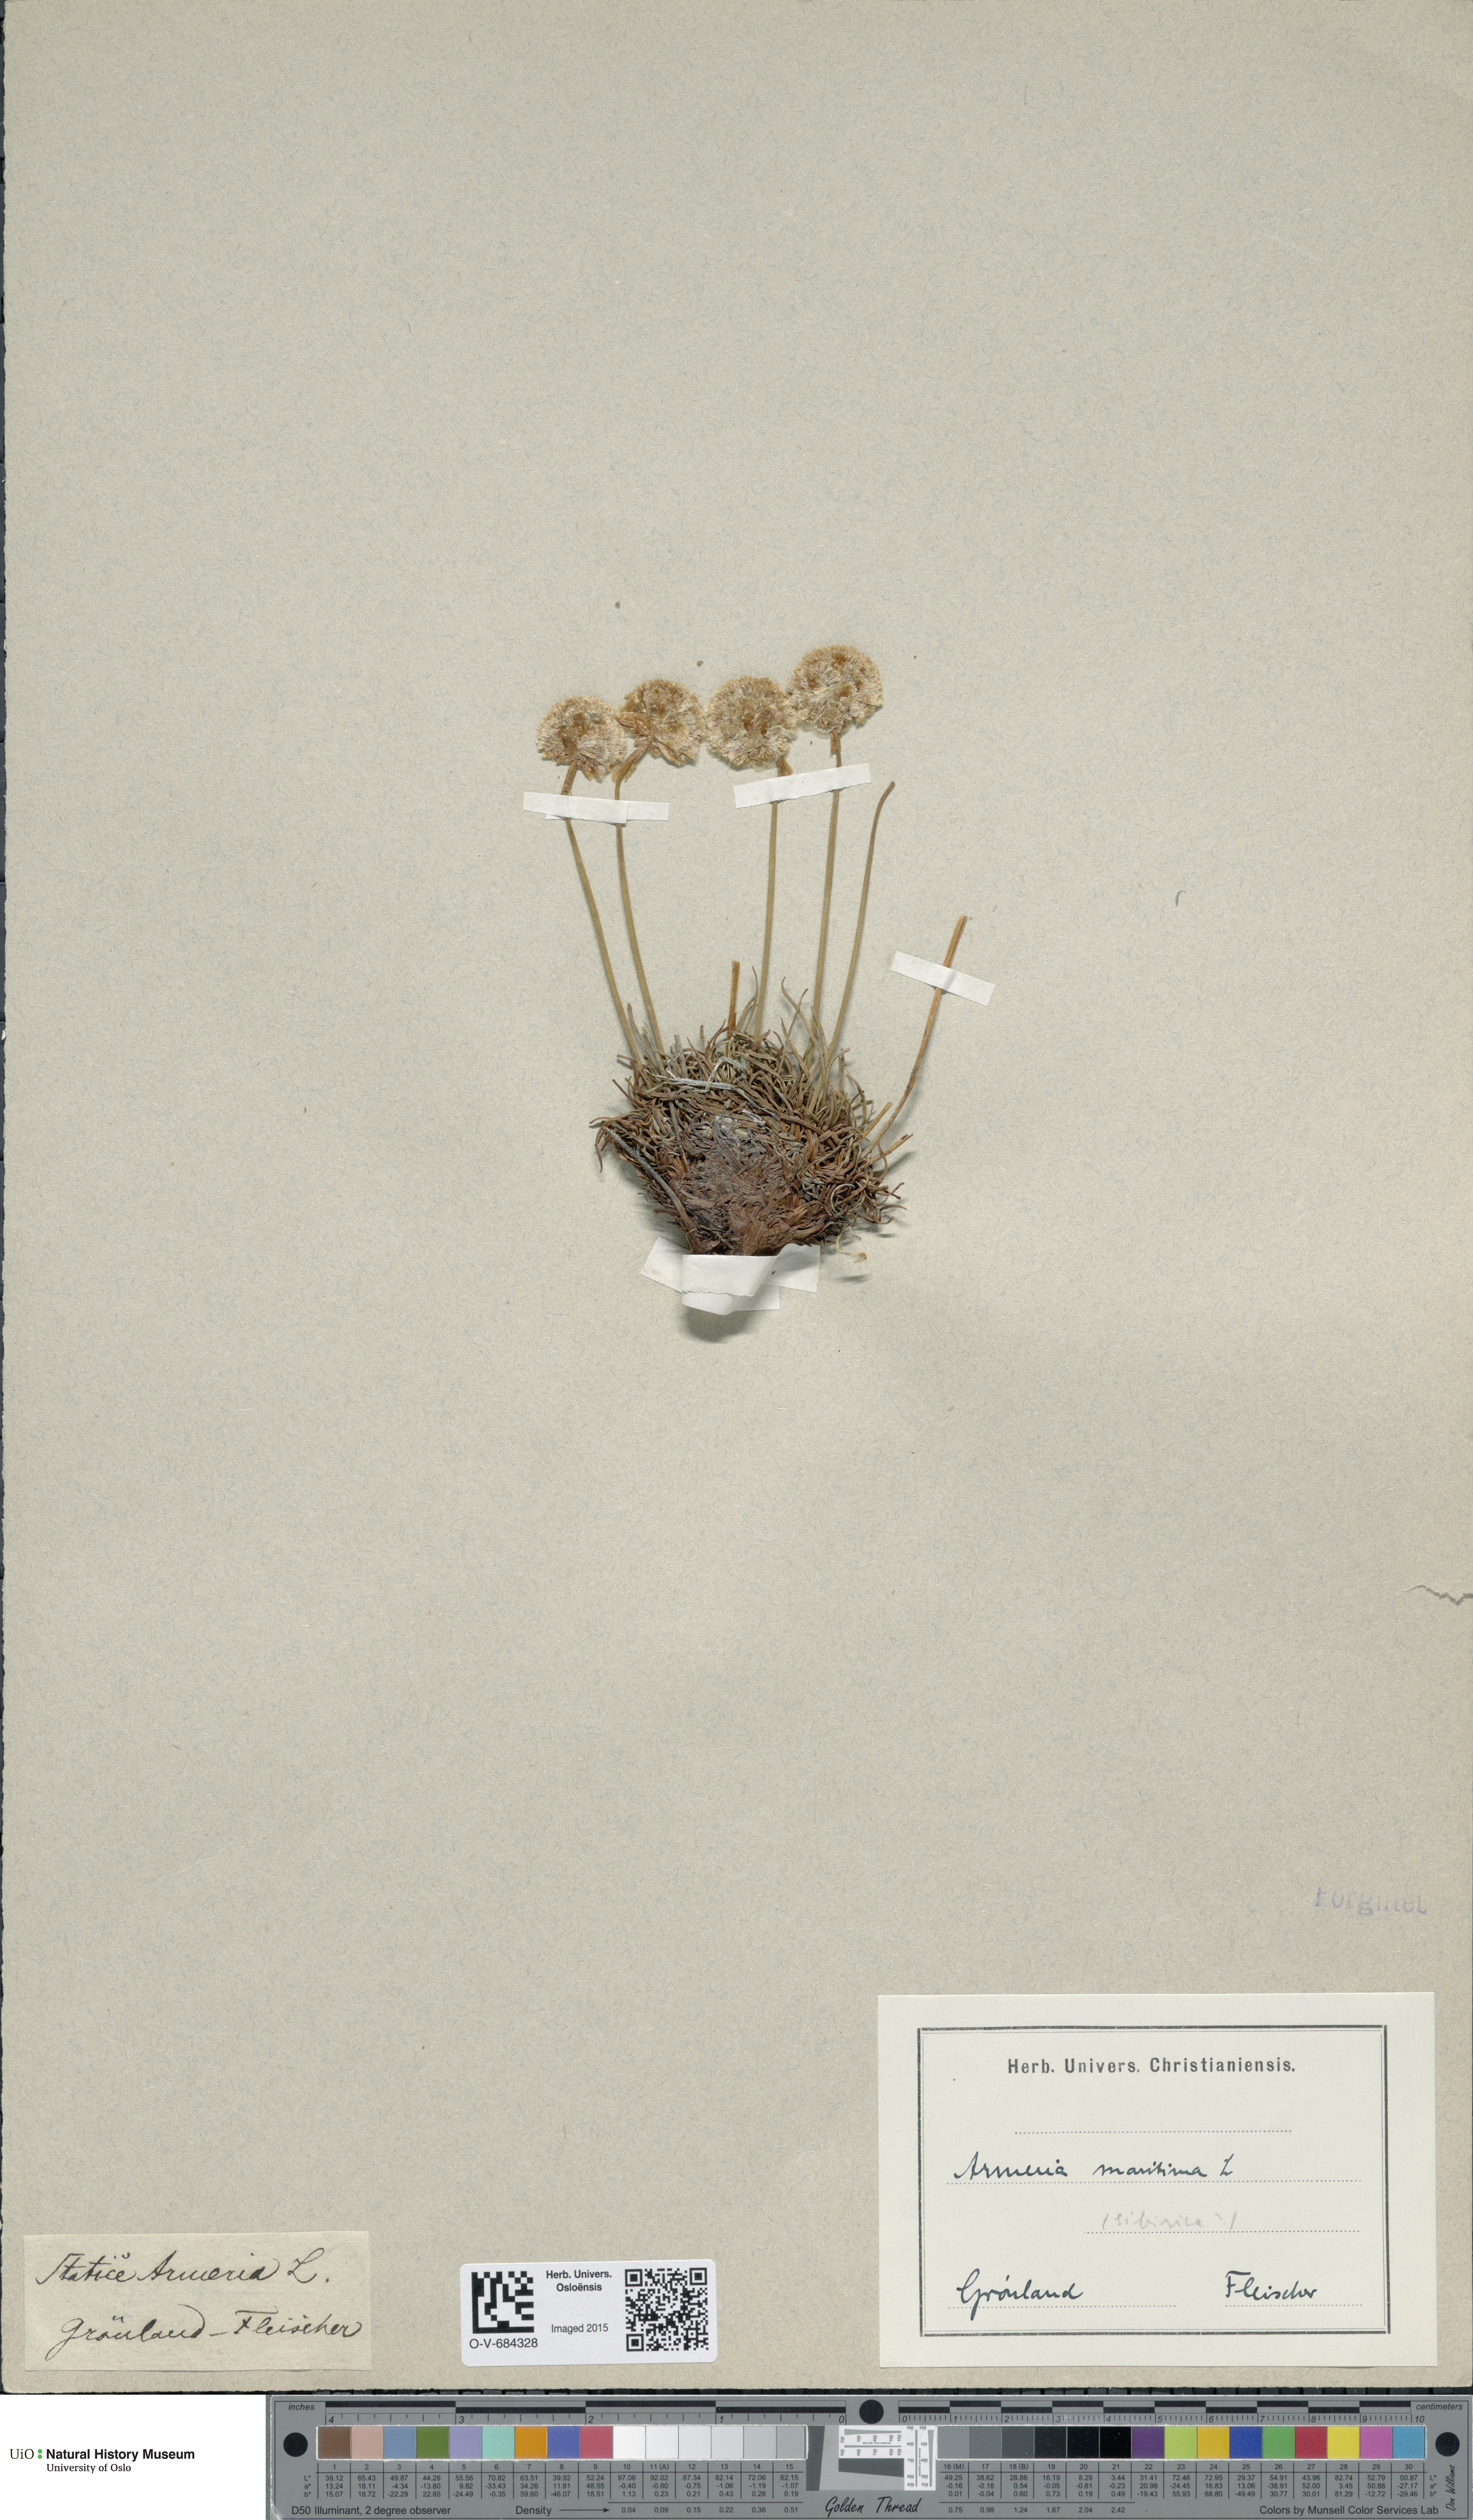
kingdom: Plantae
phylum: Tracheophyta
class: Magnoliopsida
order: Caryophyllales
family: Plumbaginaceae
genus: Armeria
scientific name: Armeria maritima
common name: Thrift
